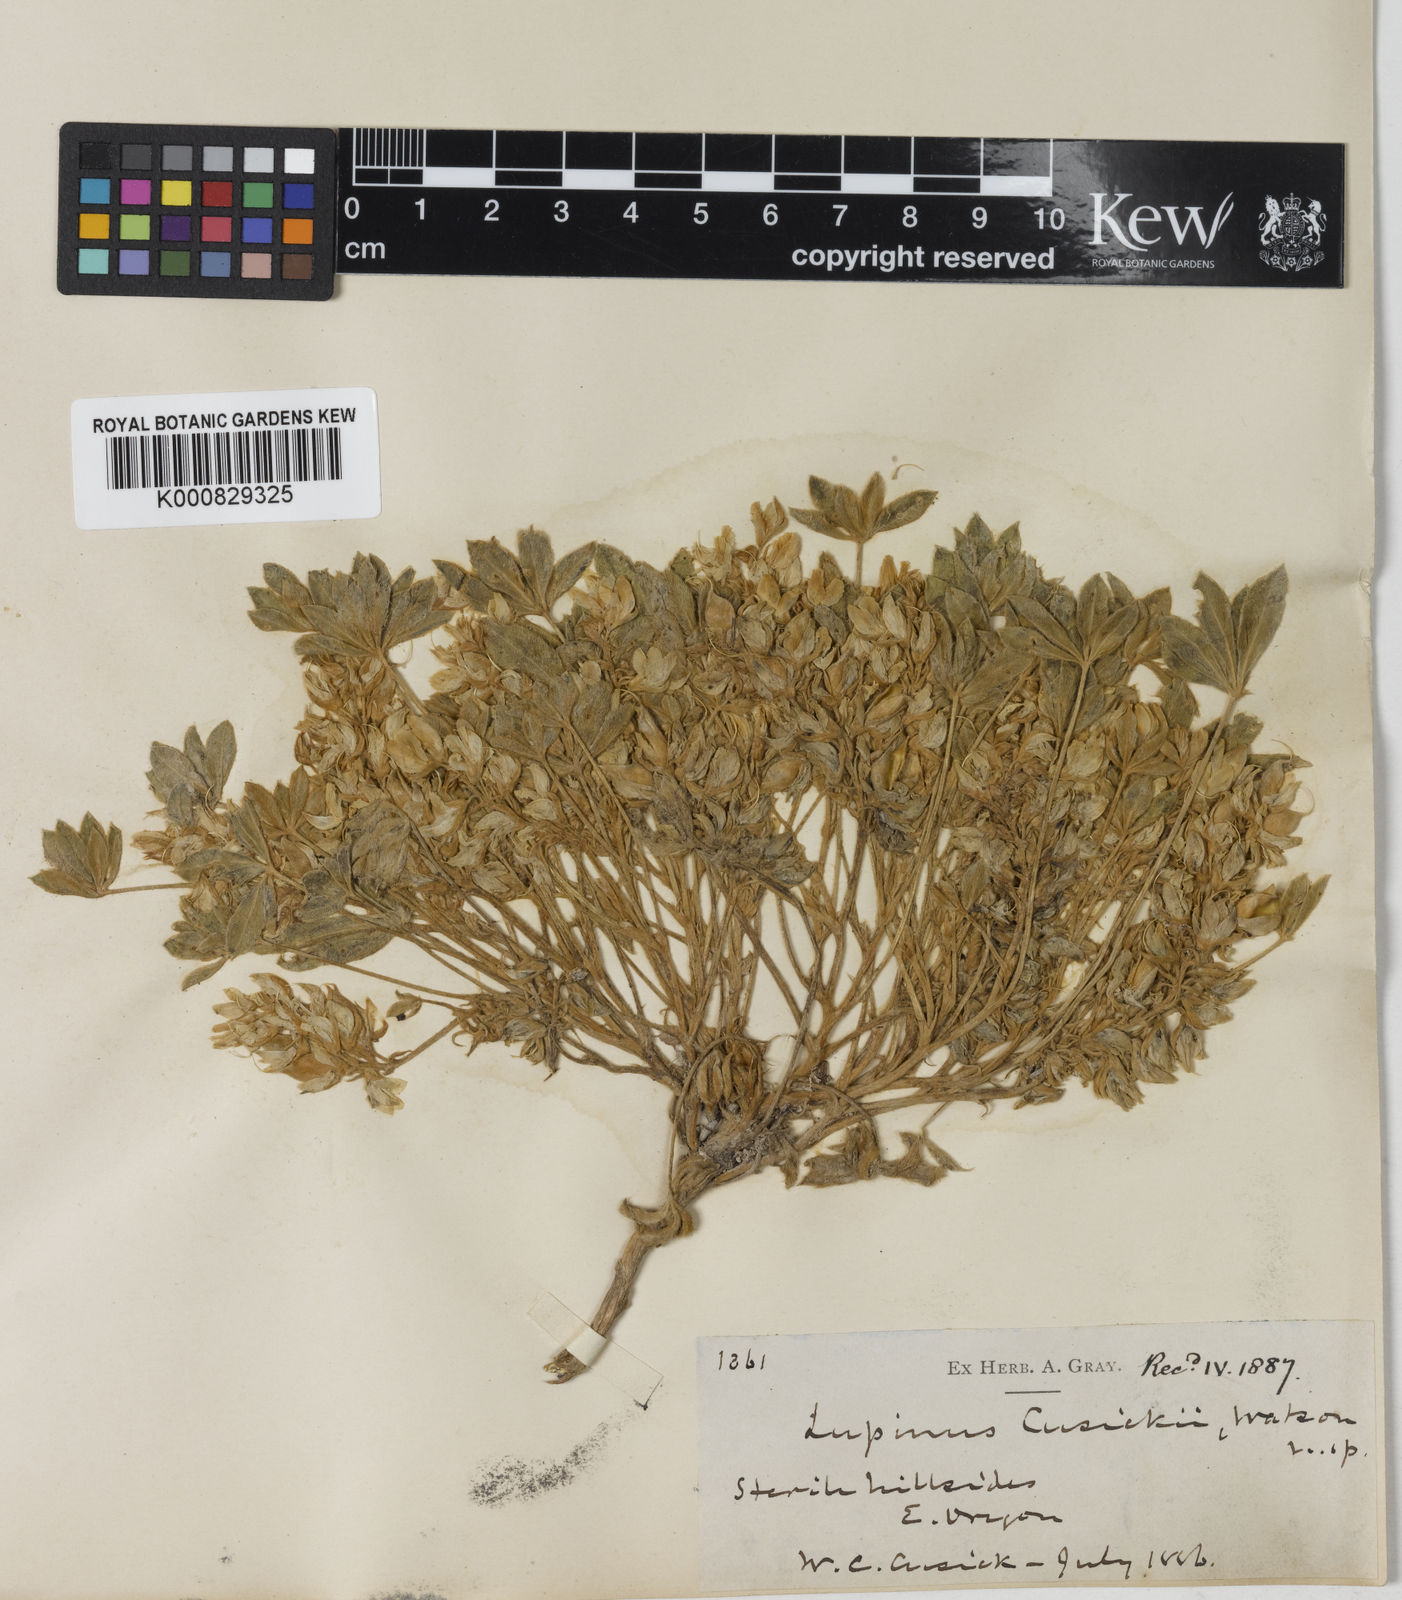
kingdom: Plantae
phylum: Tracheophyta
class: Magnoliopsida
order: Fabales
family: Fabaceae
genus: Lupinus
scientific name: Lupinus cusickii
